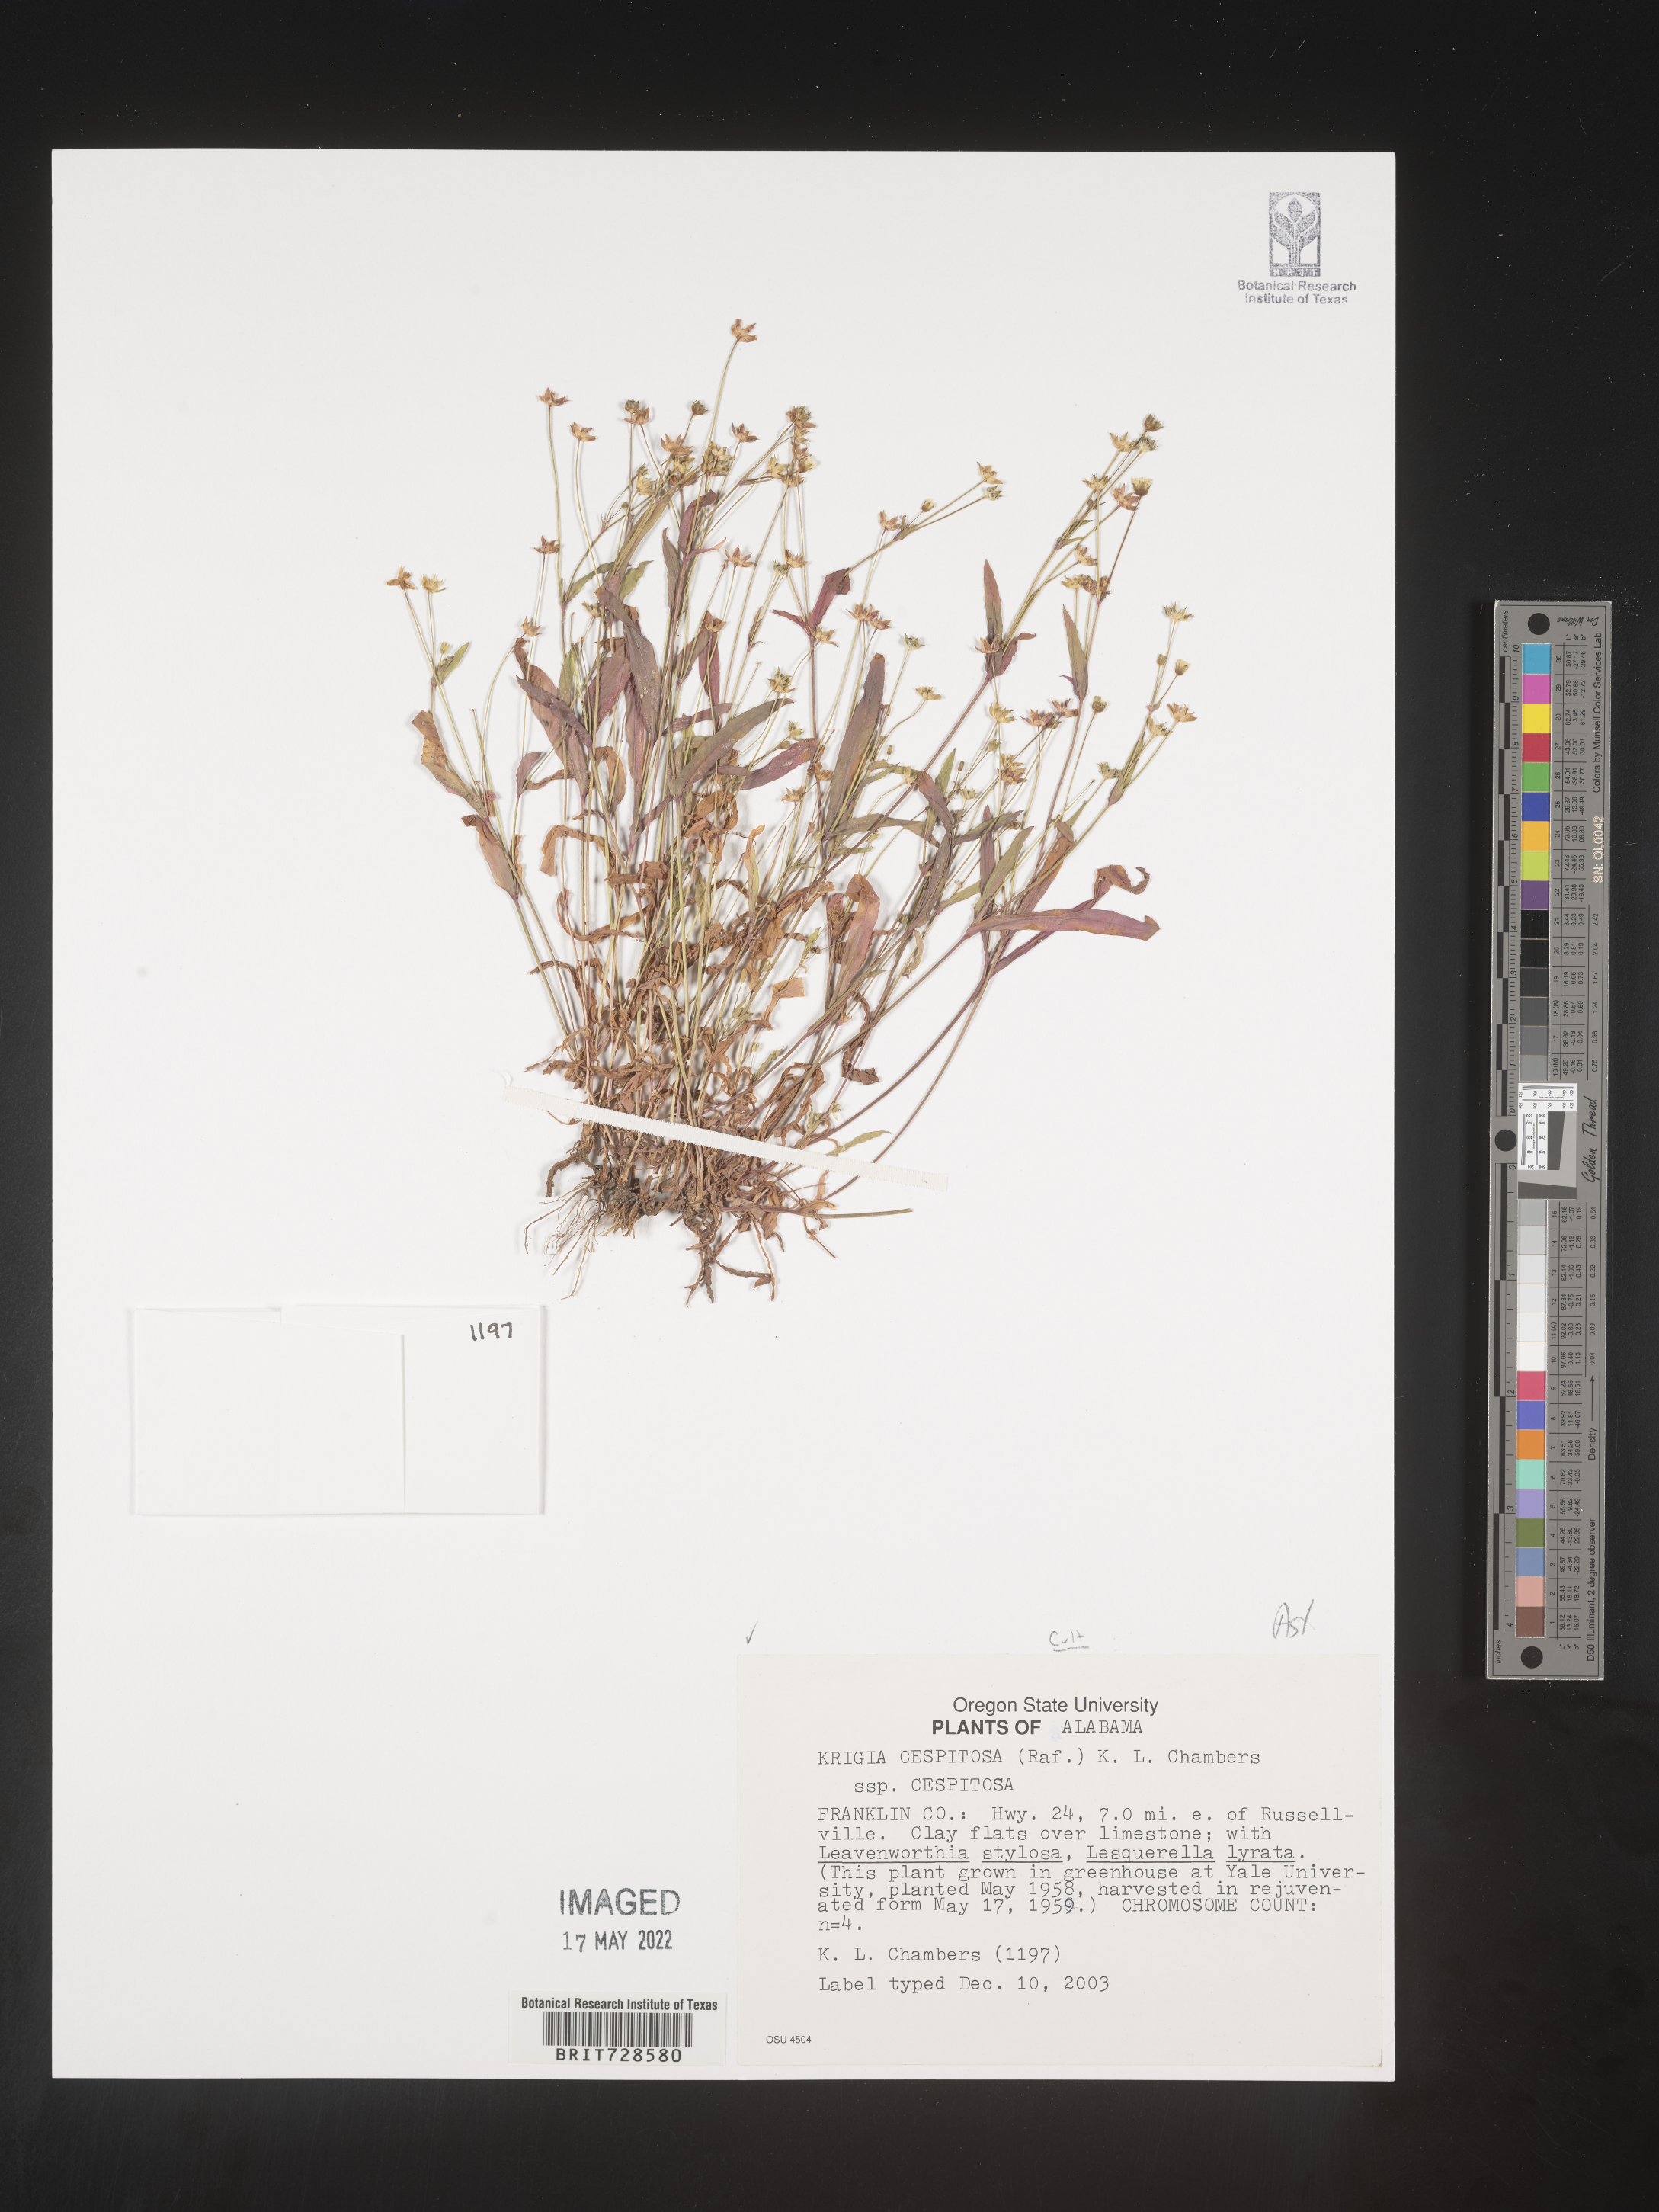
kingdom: Plantae
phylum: Tracheophyta
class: Magnoliopsida
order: Asterales
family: Asteraceae
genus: Krigia
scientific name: Krigia
